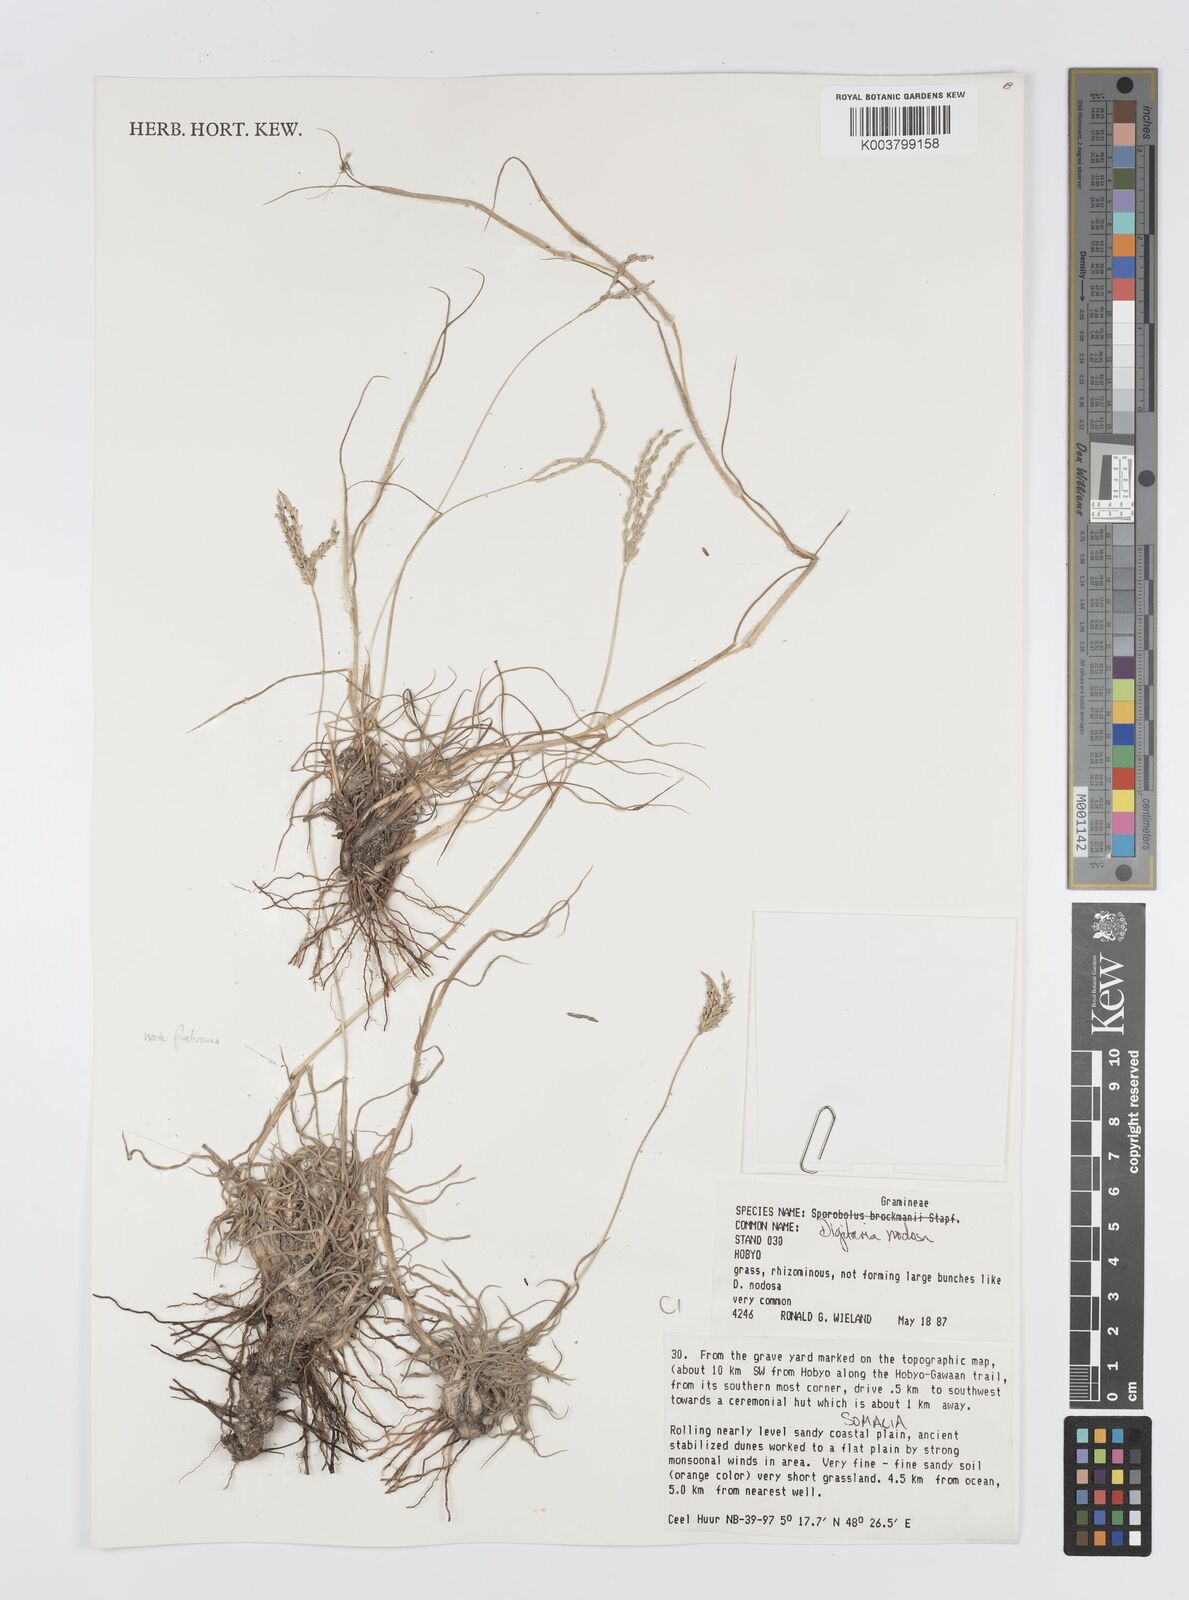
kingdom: Plantae
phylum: Tracheophyta
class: Liliopsida
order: Poales
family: Poaceae
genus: Digitaria
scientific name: Digitaria nodosa
